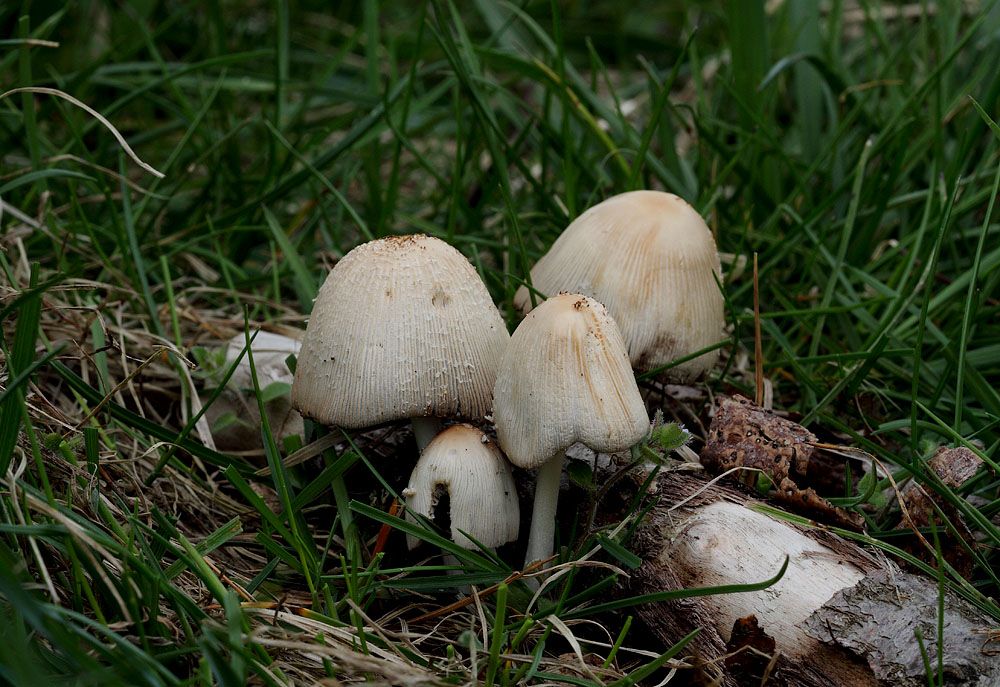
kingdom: Fungi
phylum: Basidiomycota
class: Agaricomycetes
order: Agaricales
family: Psathyrellaceae
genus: Coprinellus
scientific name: Coprinellus domesticus
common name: hus-blækhat
